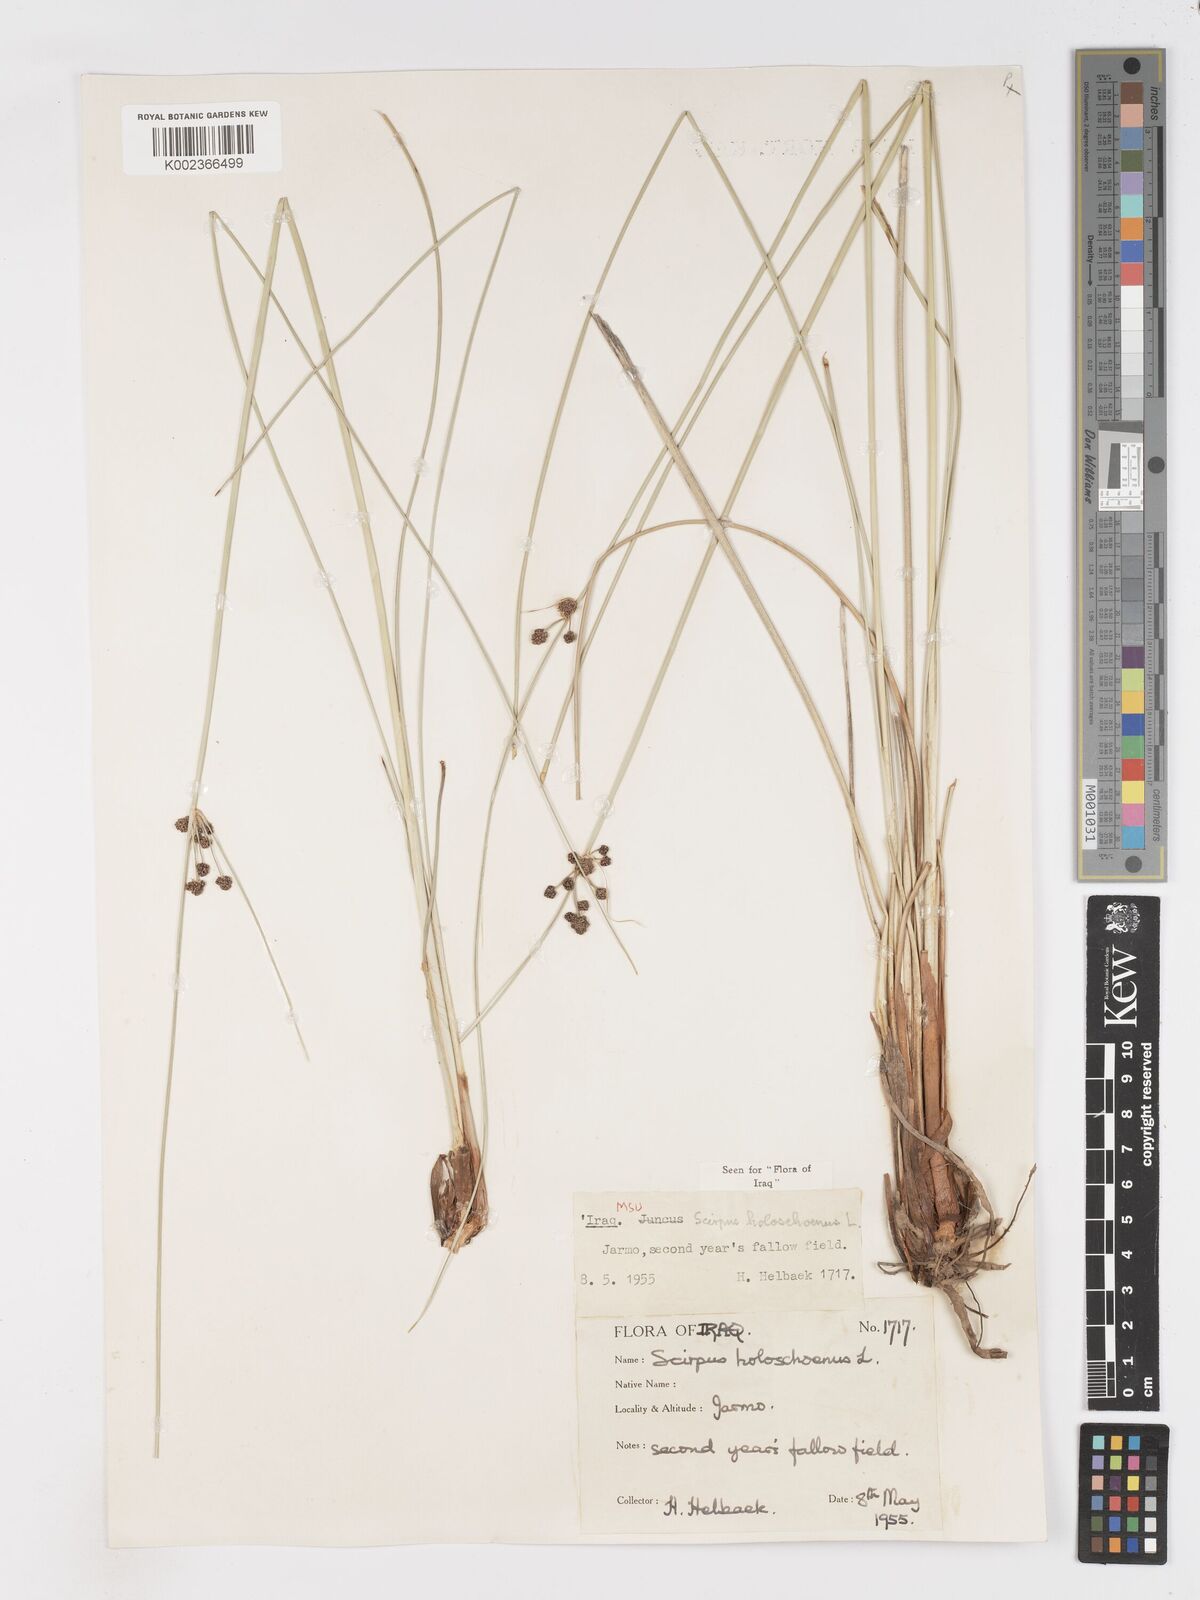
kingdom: Plantae
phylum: Tracheophyta
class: Liliopsida
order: Poales
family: Cyperaceae
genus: Scirpoides
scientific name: Scirpoides holoschoenus
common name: Round-headed club-rush
